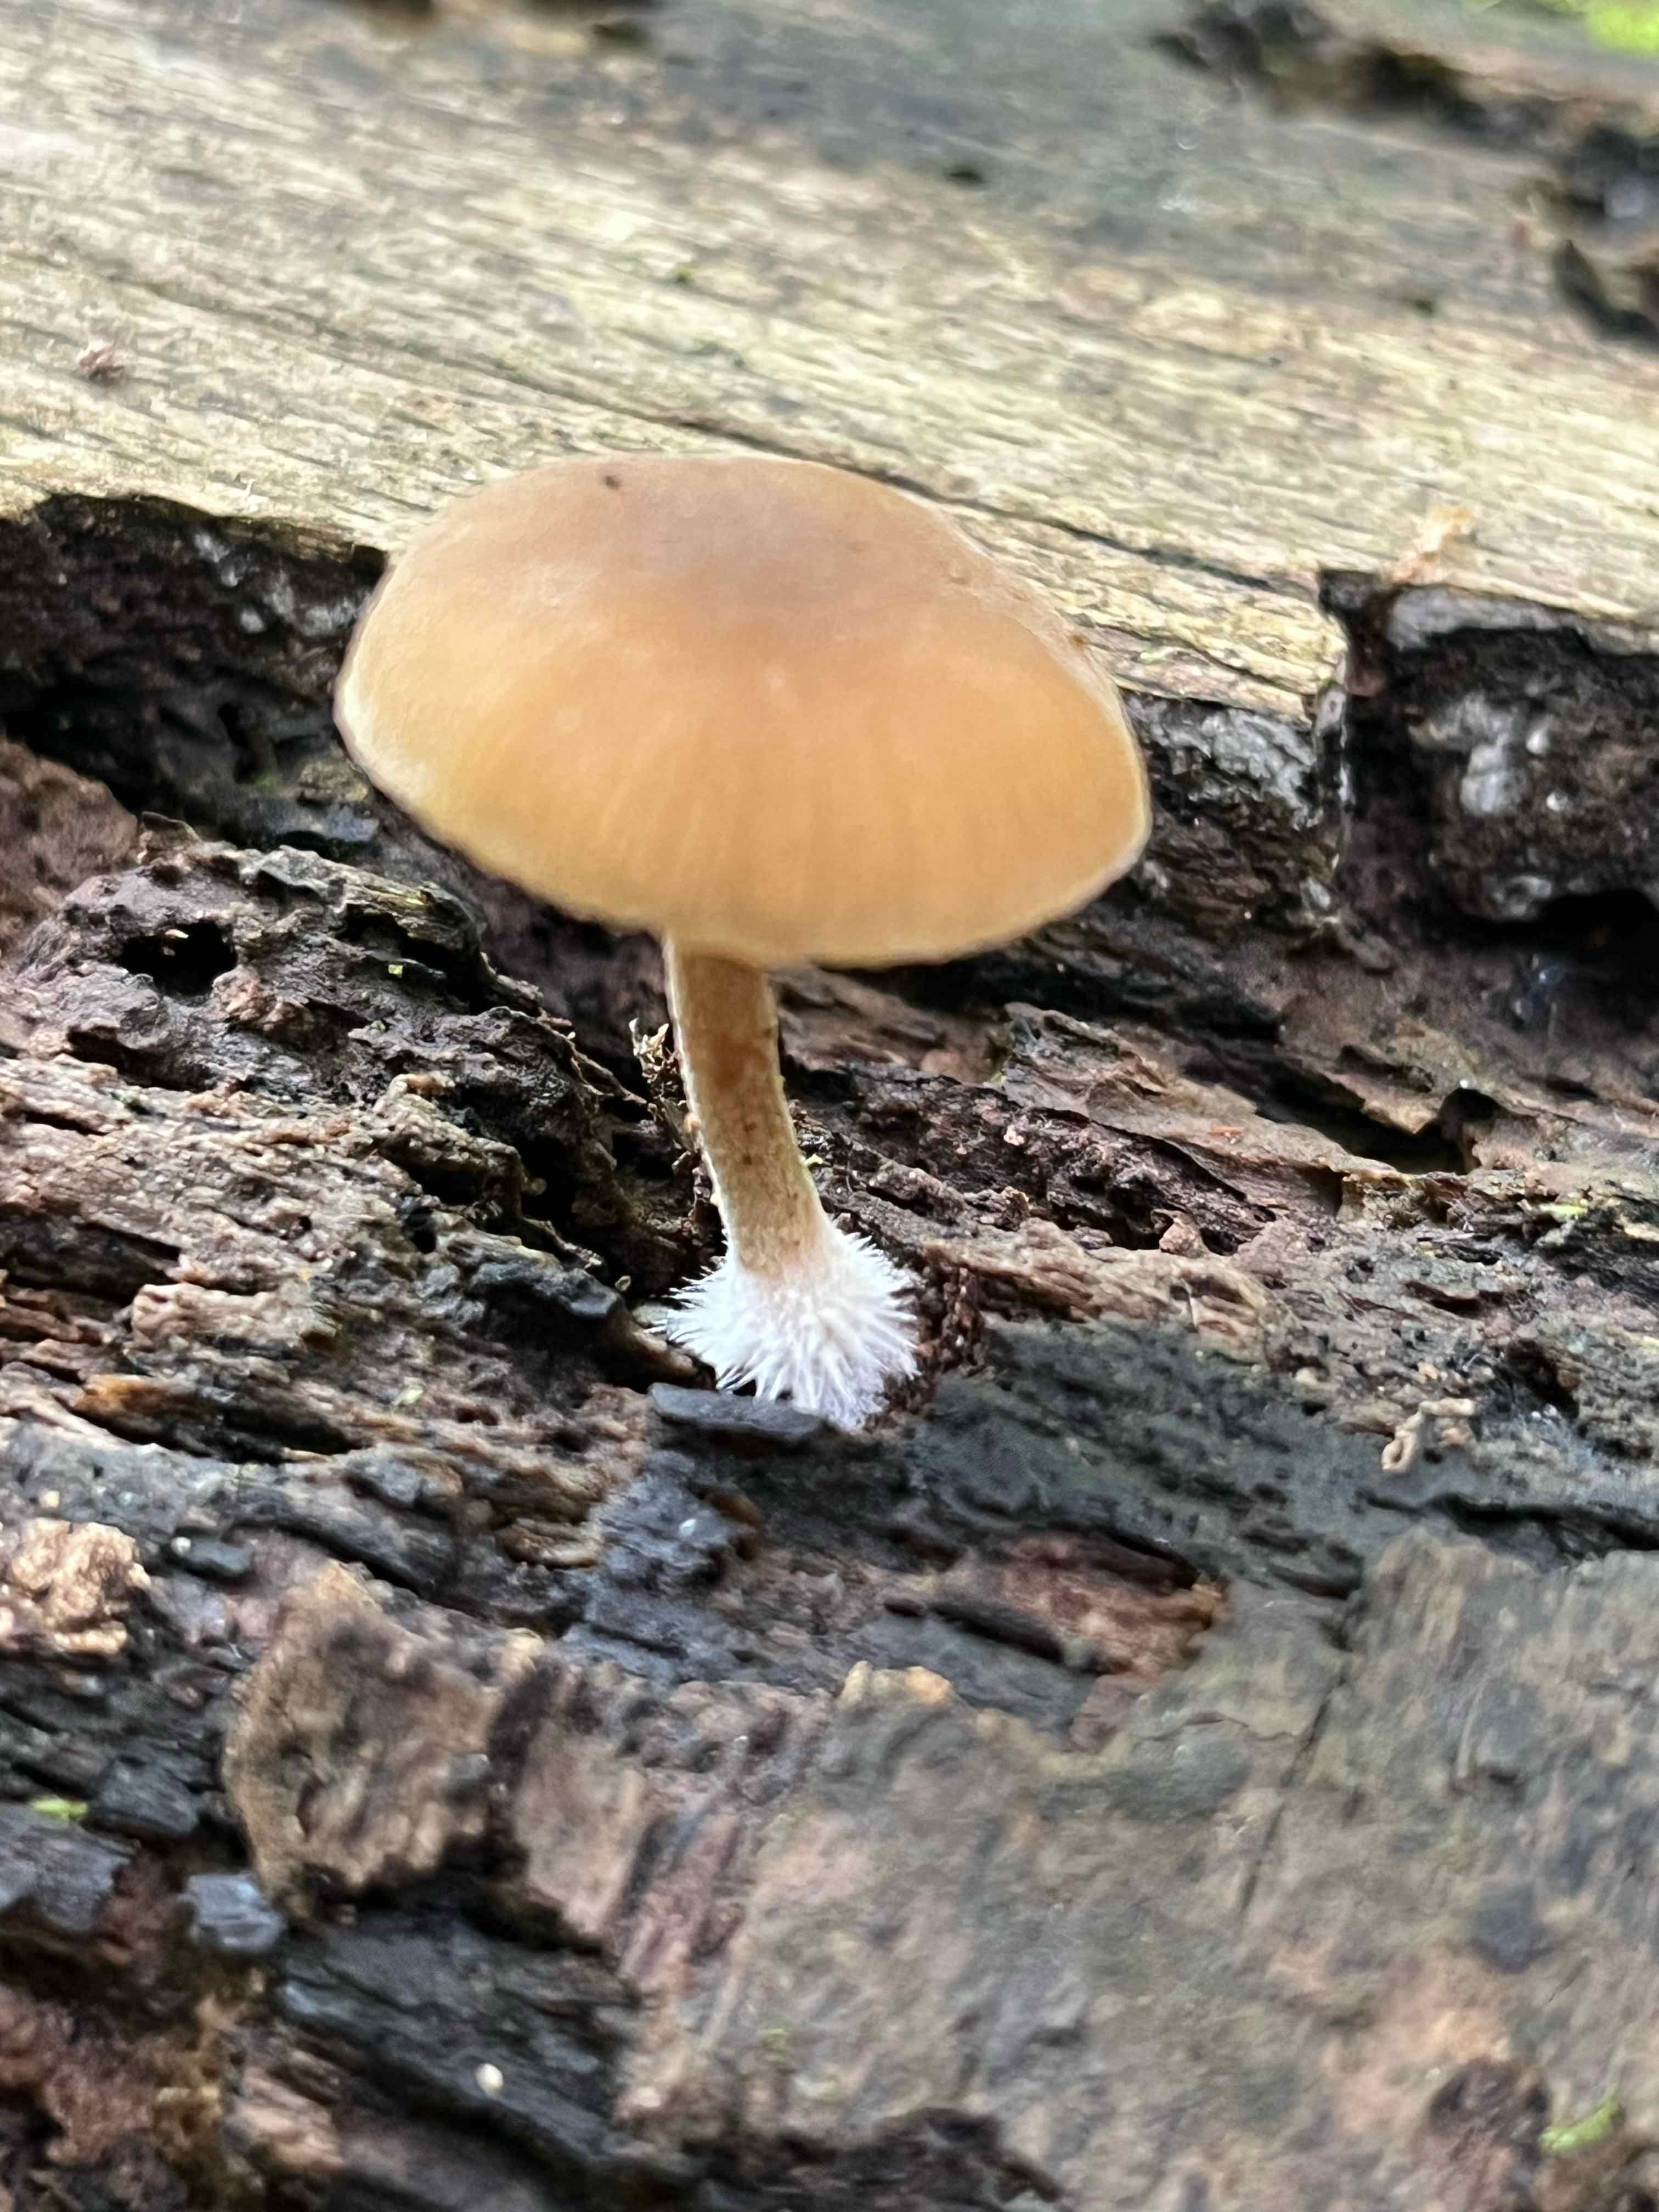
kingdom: Fungi
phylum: Basidiomycota
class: Agaricomycetes
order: Agaricales
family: Crepidotaceae
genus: Simocybe
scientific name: Simocybe
